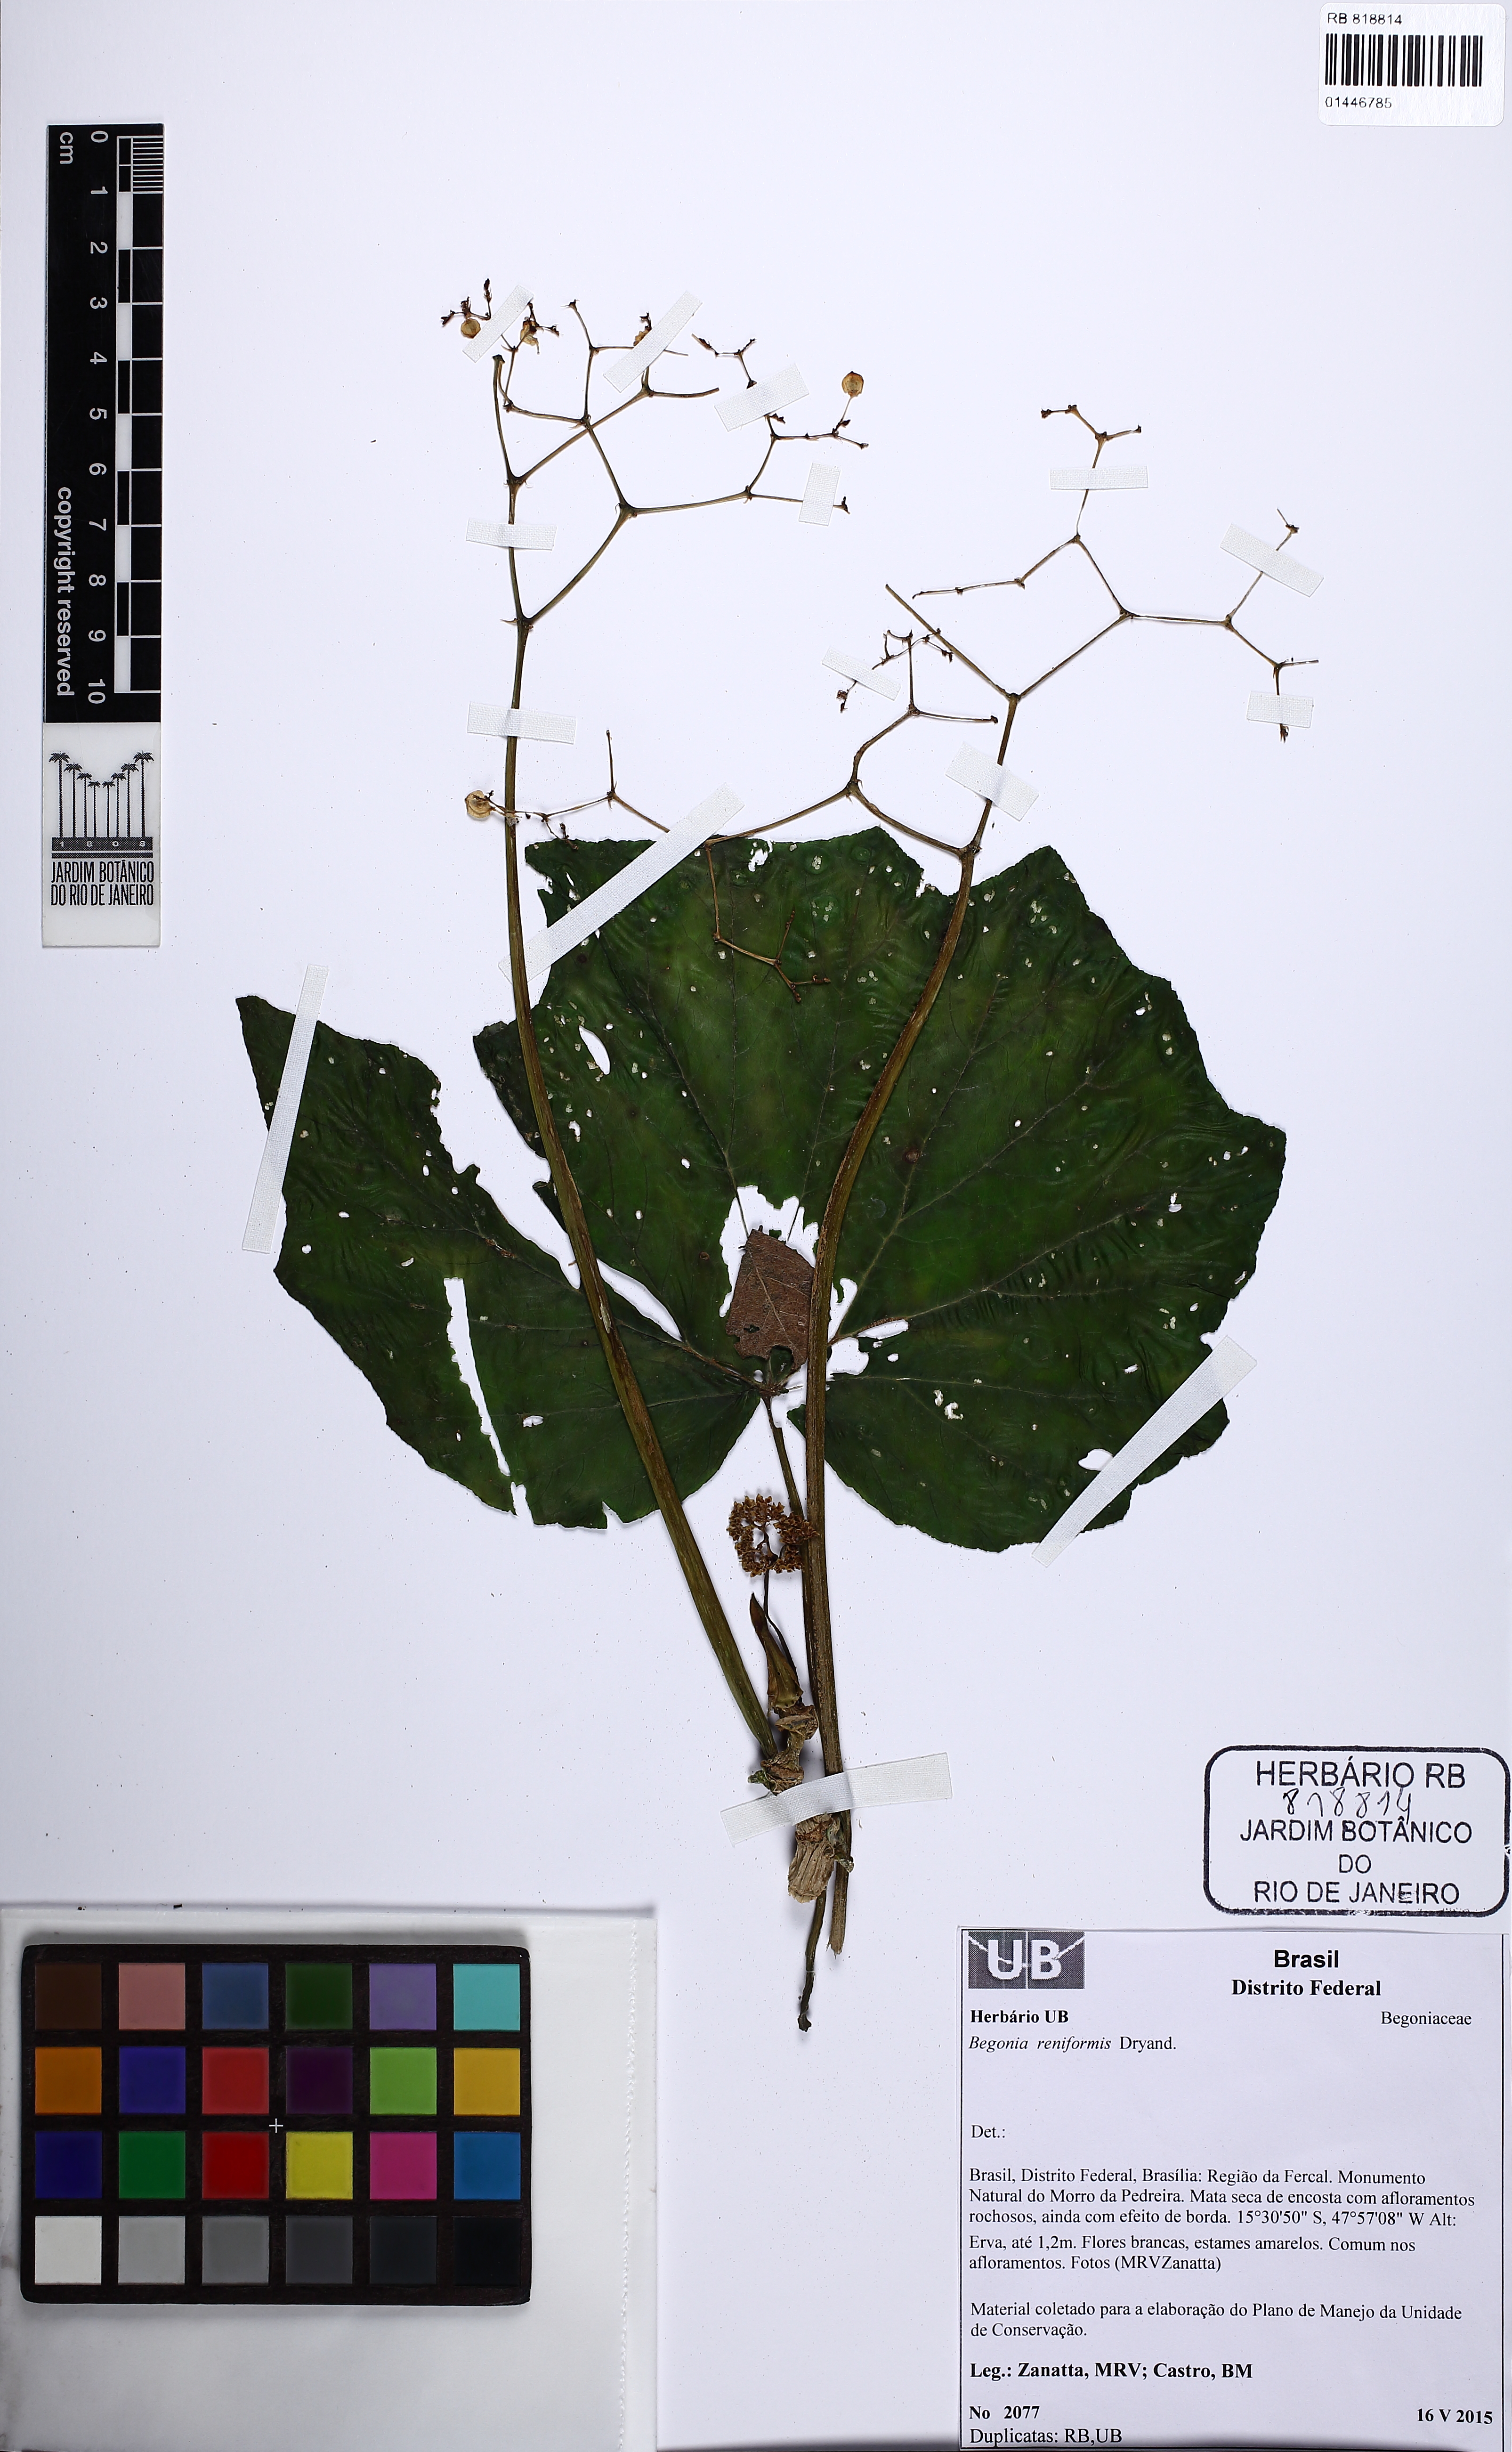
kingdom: Plantae
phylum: Tracheophyta
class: Magnoliopsida
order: Cucurbitales
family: Begoniaceae
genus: Begonia
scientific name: Begonia reniformis
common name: Grapeleaf begonia
